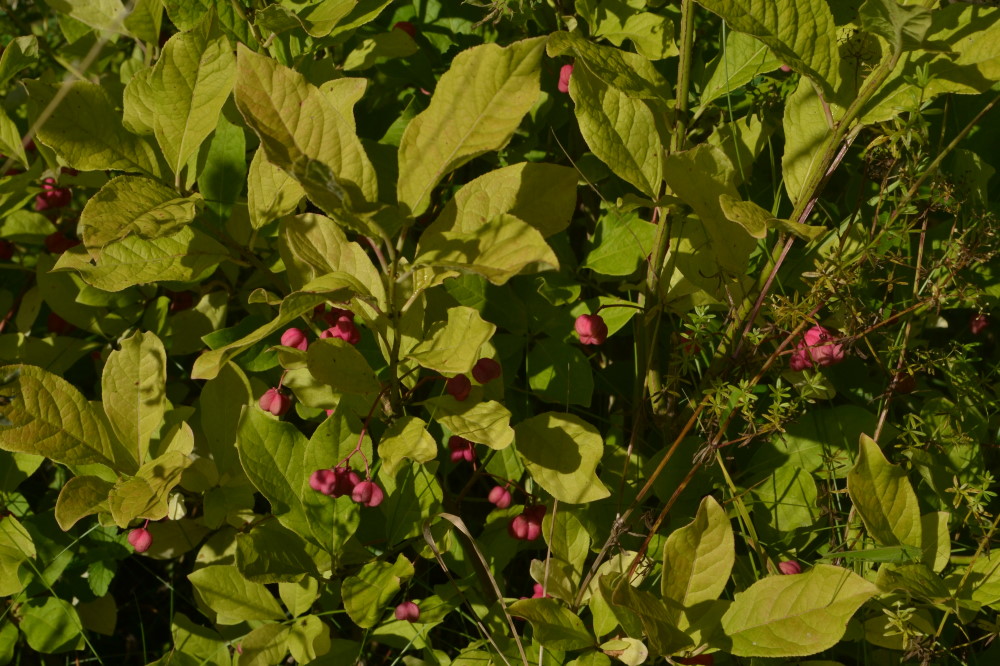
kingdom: Plantae
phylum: Tracheophyta
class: Magnoliopsida
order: Celastrales
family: Celastraceae
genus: Euonymus
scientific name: Euonymus europaeus
